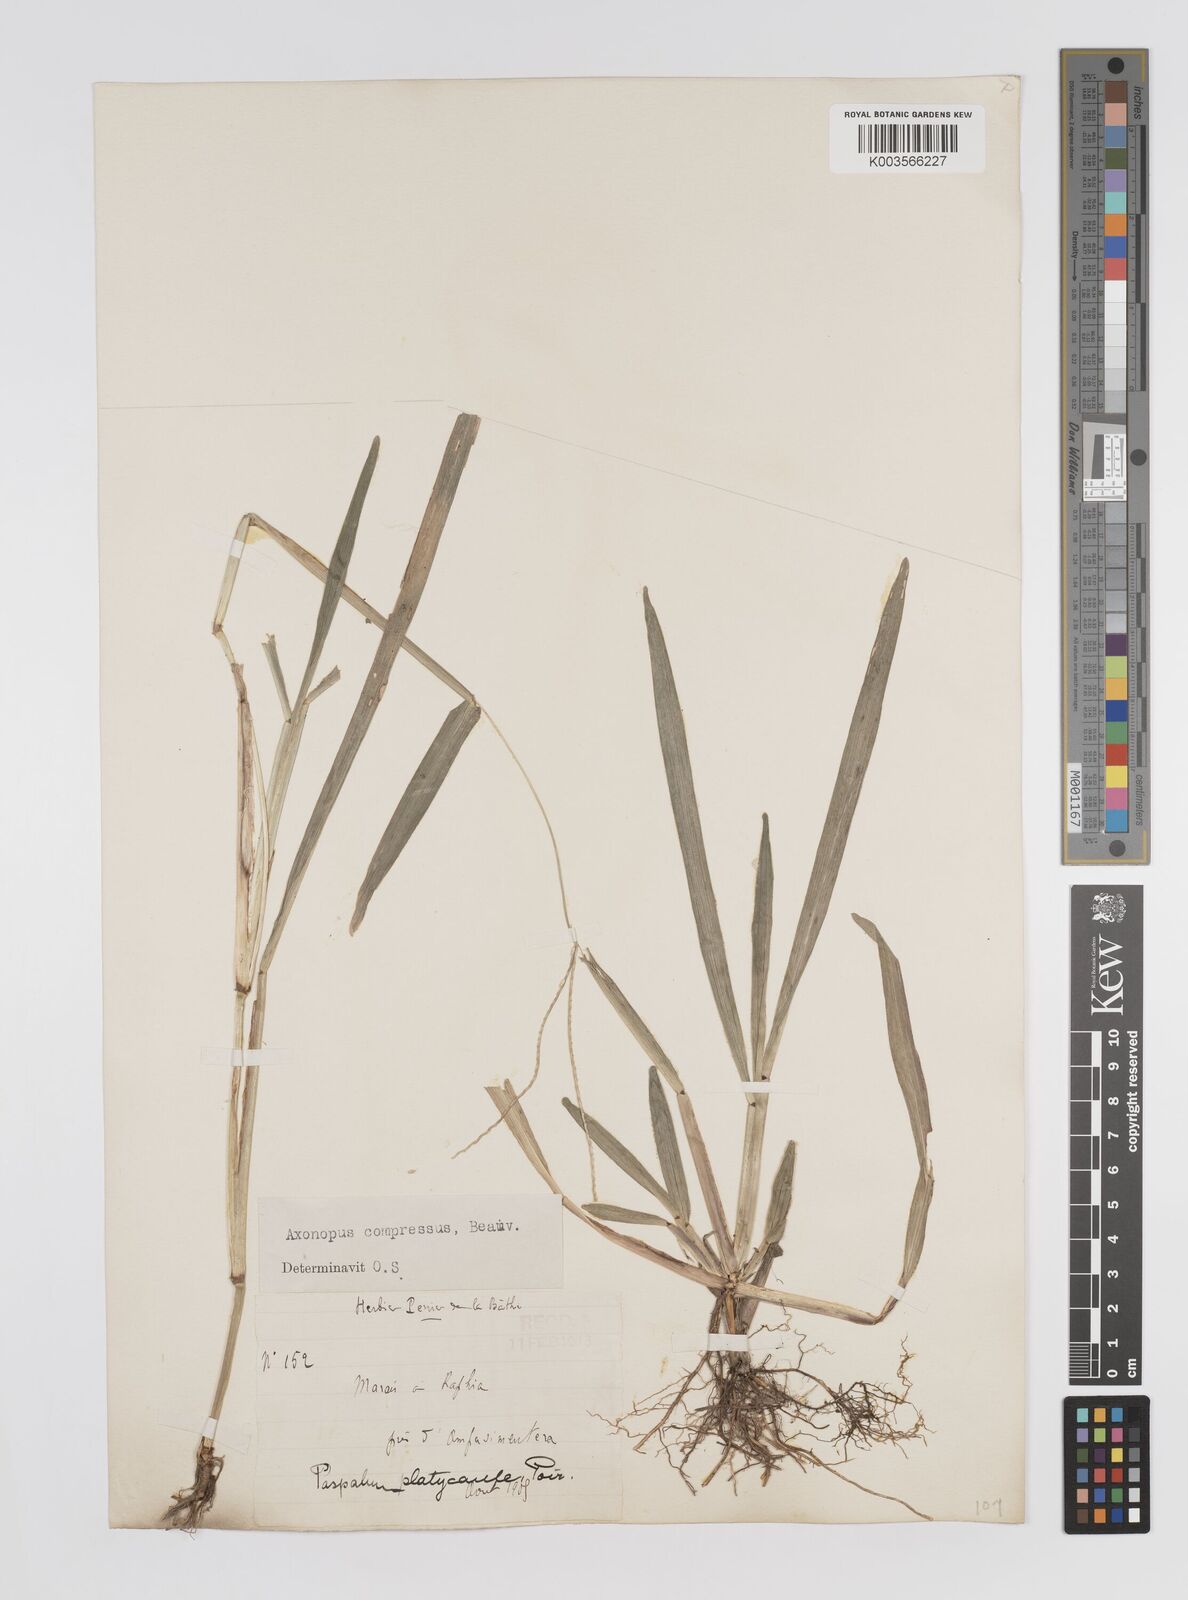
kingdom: Plantae
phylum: Tracheophyta
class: Liliopsida
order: Poales
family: Poaceae
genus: Axonopus
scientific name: Axonopus compressus
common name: American carpet grass
